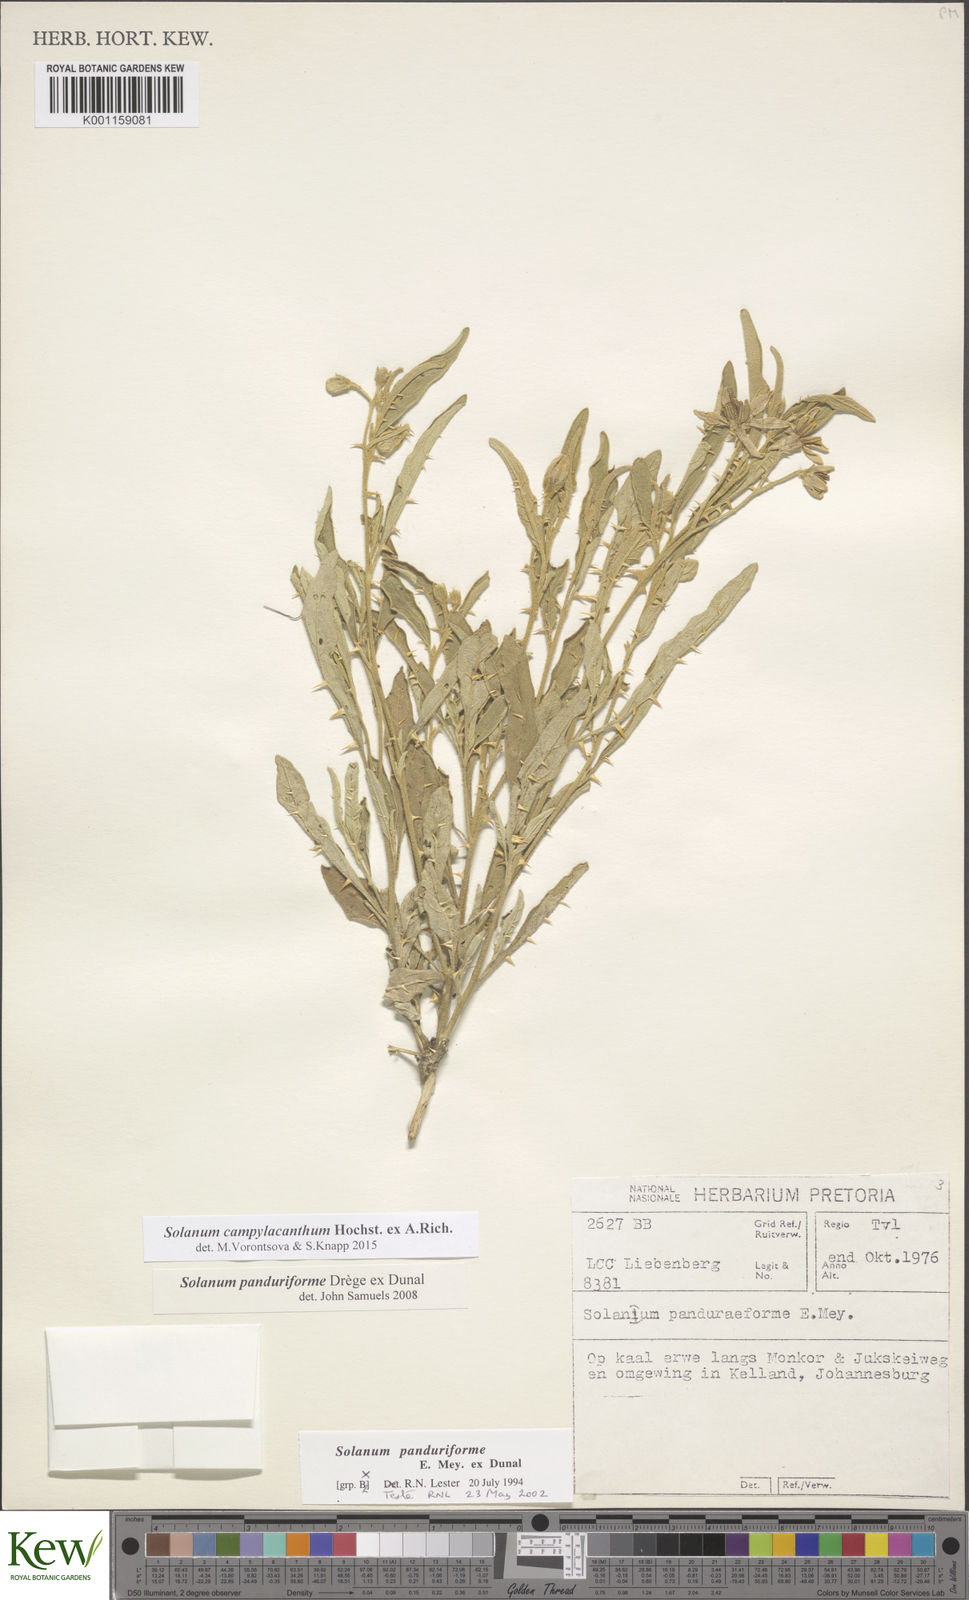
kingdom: Plantae
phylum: Tracheophyta
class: Magnoliopsida
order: Solanales
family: Solanaceae
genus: Solanum
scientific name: Solanum campylacanthum
